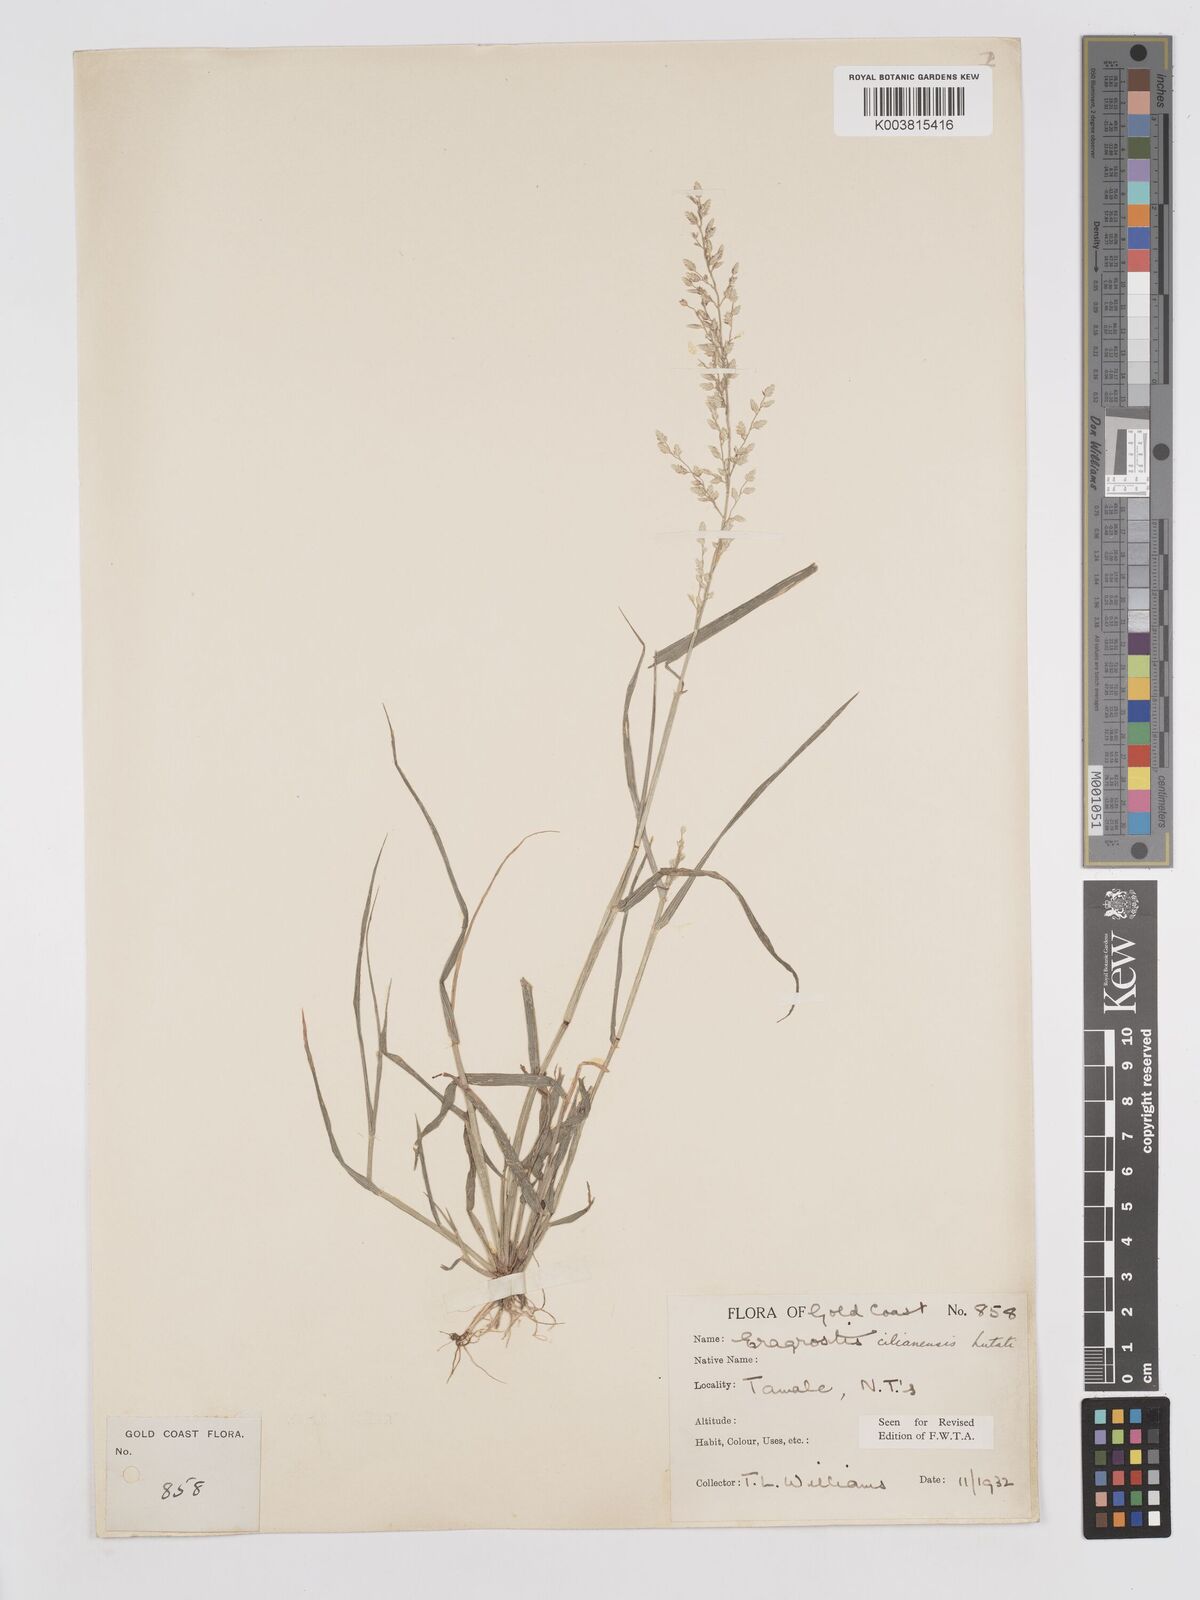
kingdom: Plantae
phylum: Tracheophyta
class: Liliopsida
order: Poales
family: Poaceae
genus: Eragrostis
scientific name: Eragrostis cilianensis
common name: Stinkgrass
